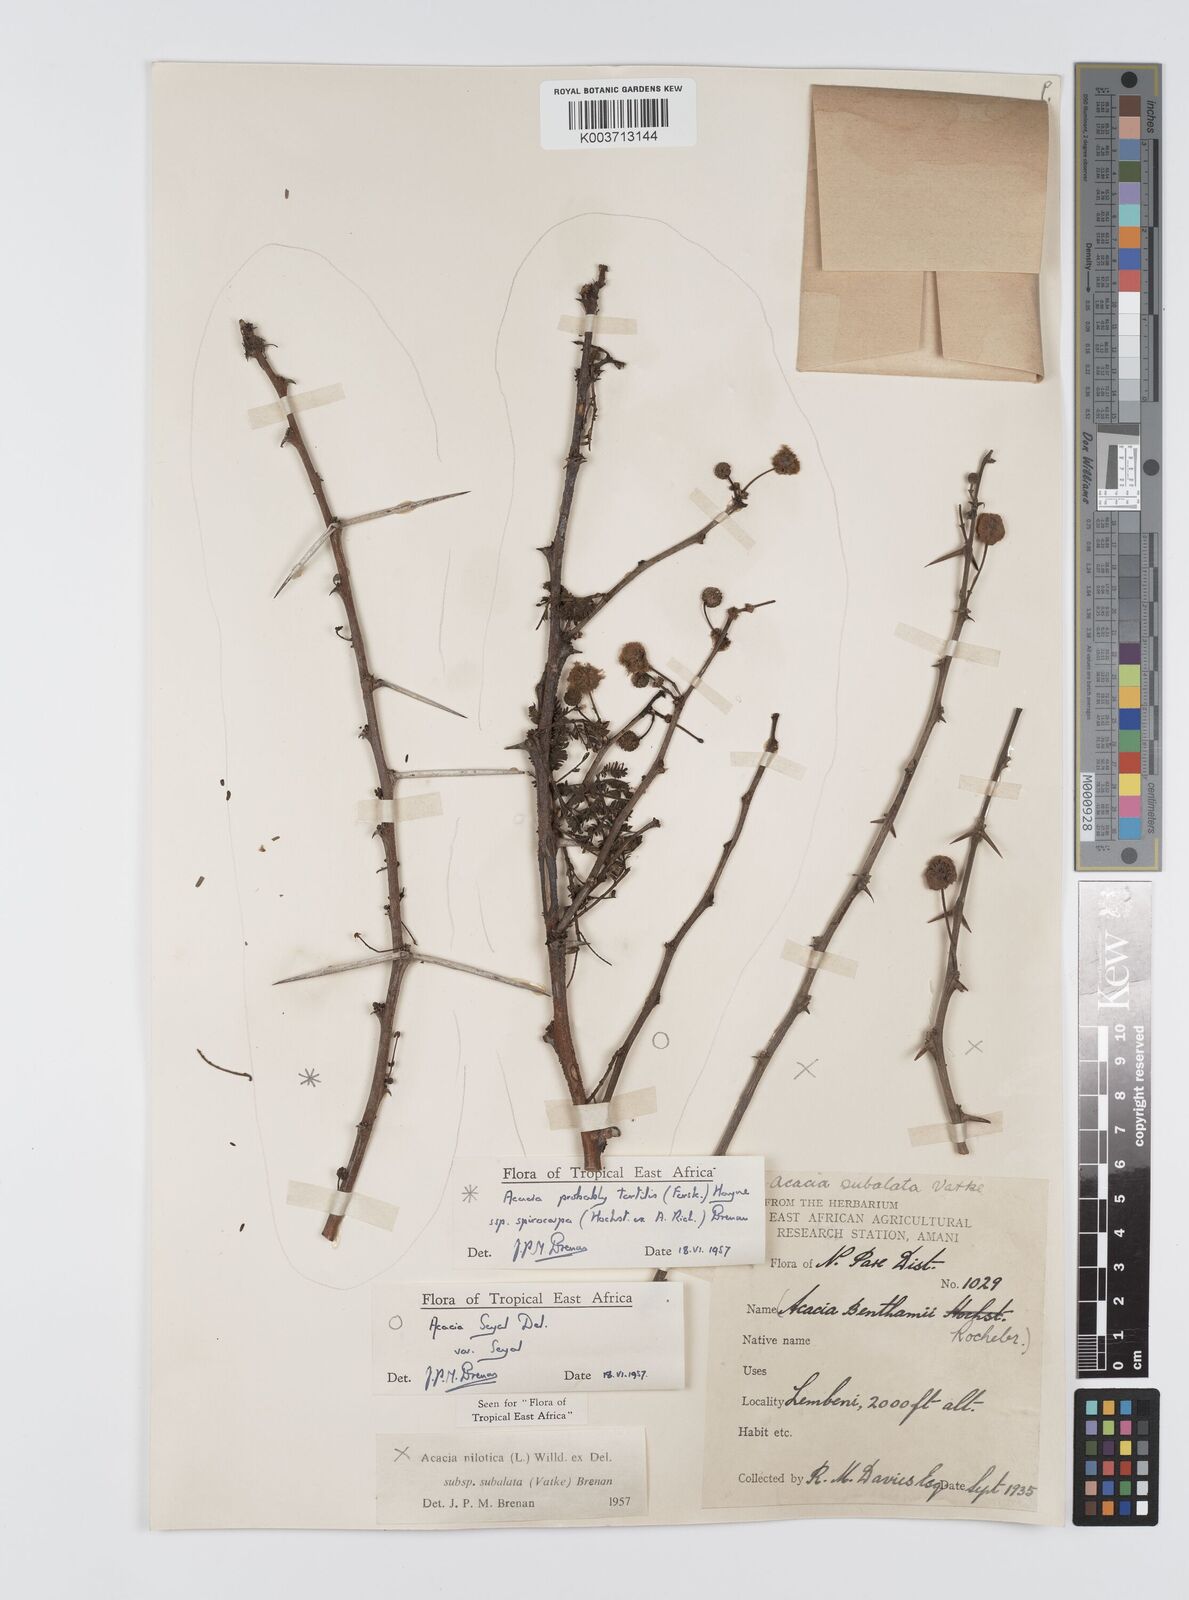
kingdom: Plantae
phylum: Tracheophyta
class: Magnoliopsida
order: Fabales
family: Fabaceae
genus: Vachellia
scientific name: Vachellia nilotica
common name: Arabic gumtree
